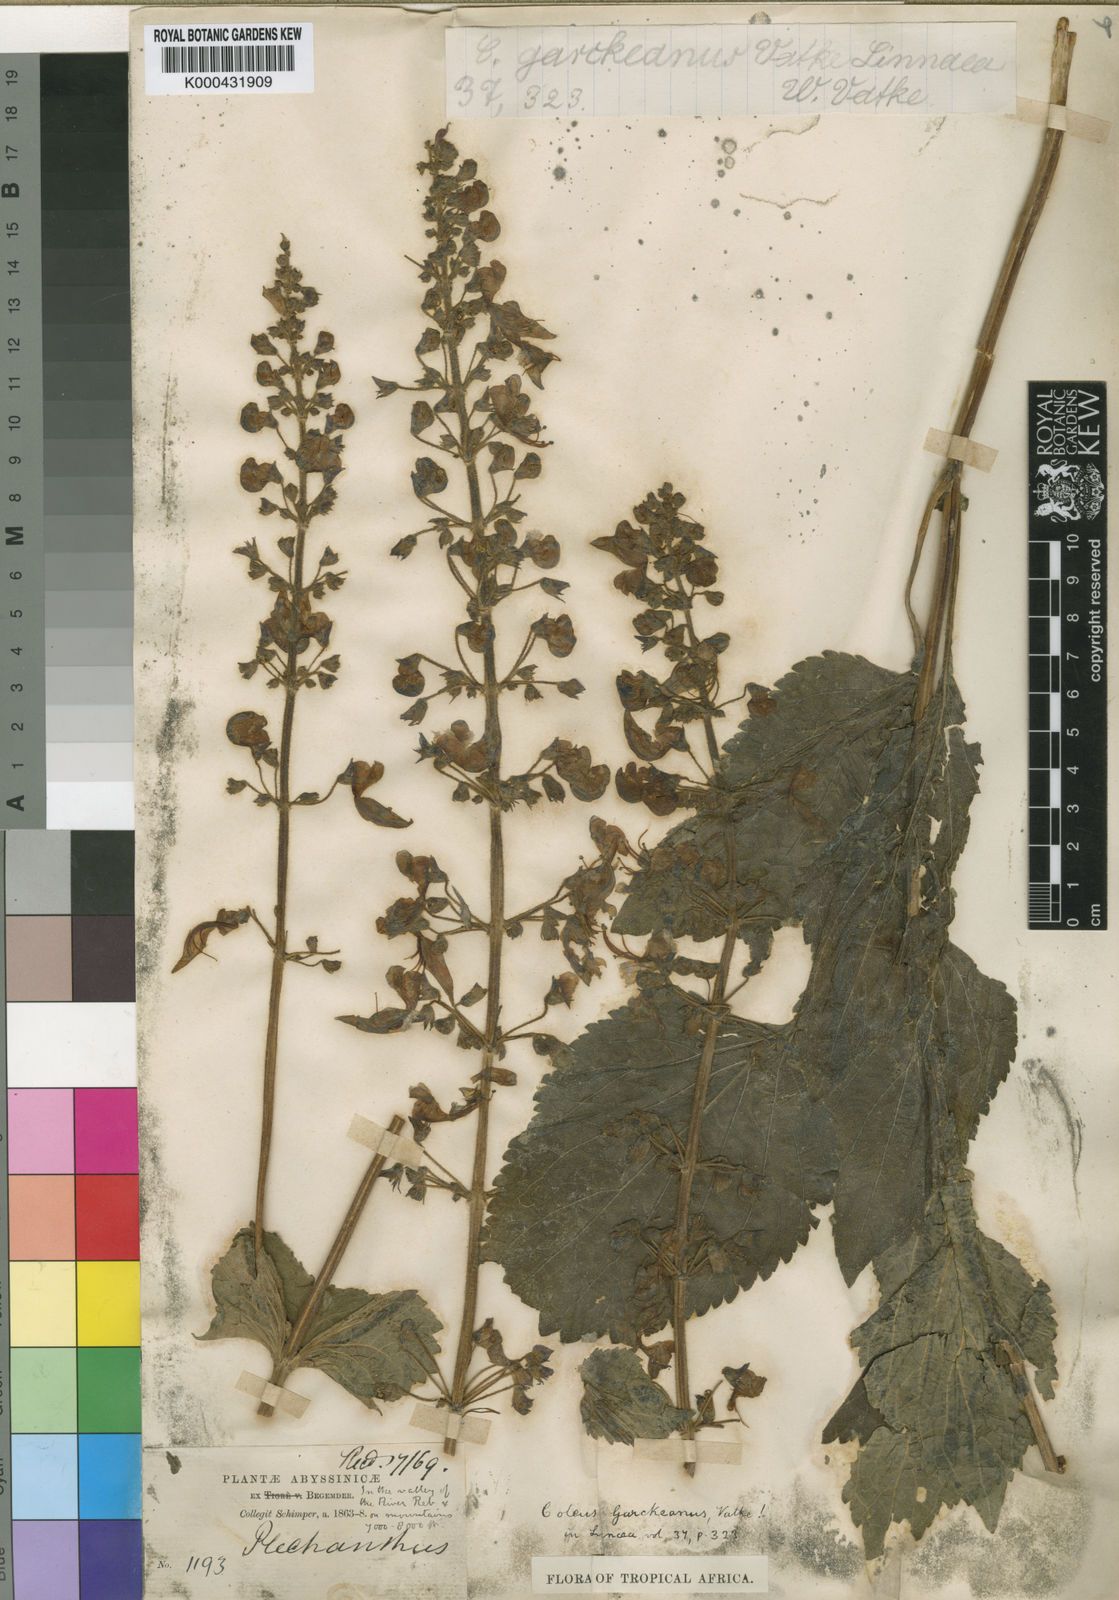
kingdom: Plantae
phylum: Tracheophyta
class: Magnoliopsida
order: Lamiales
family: Lamiaceae
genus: Coleus
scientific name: Coleus garckeanus
